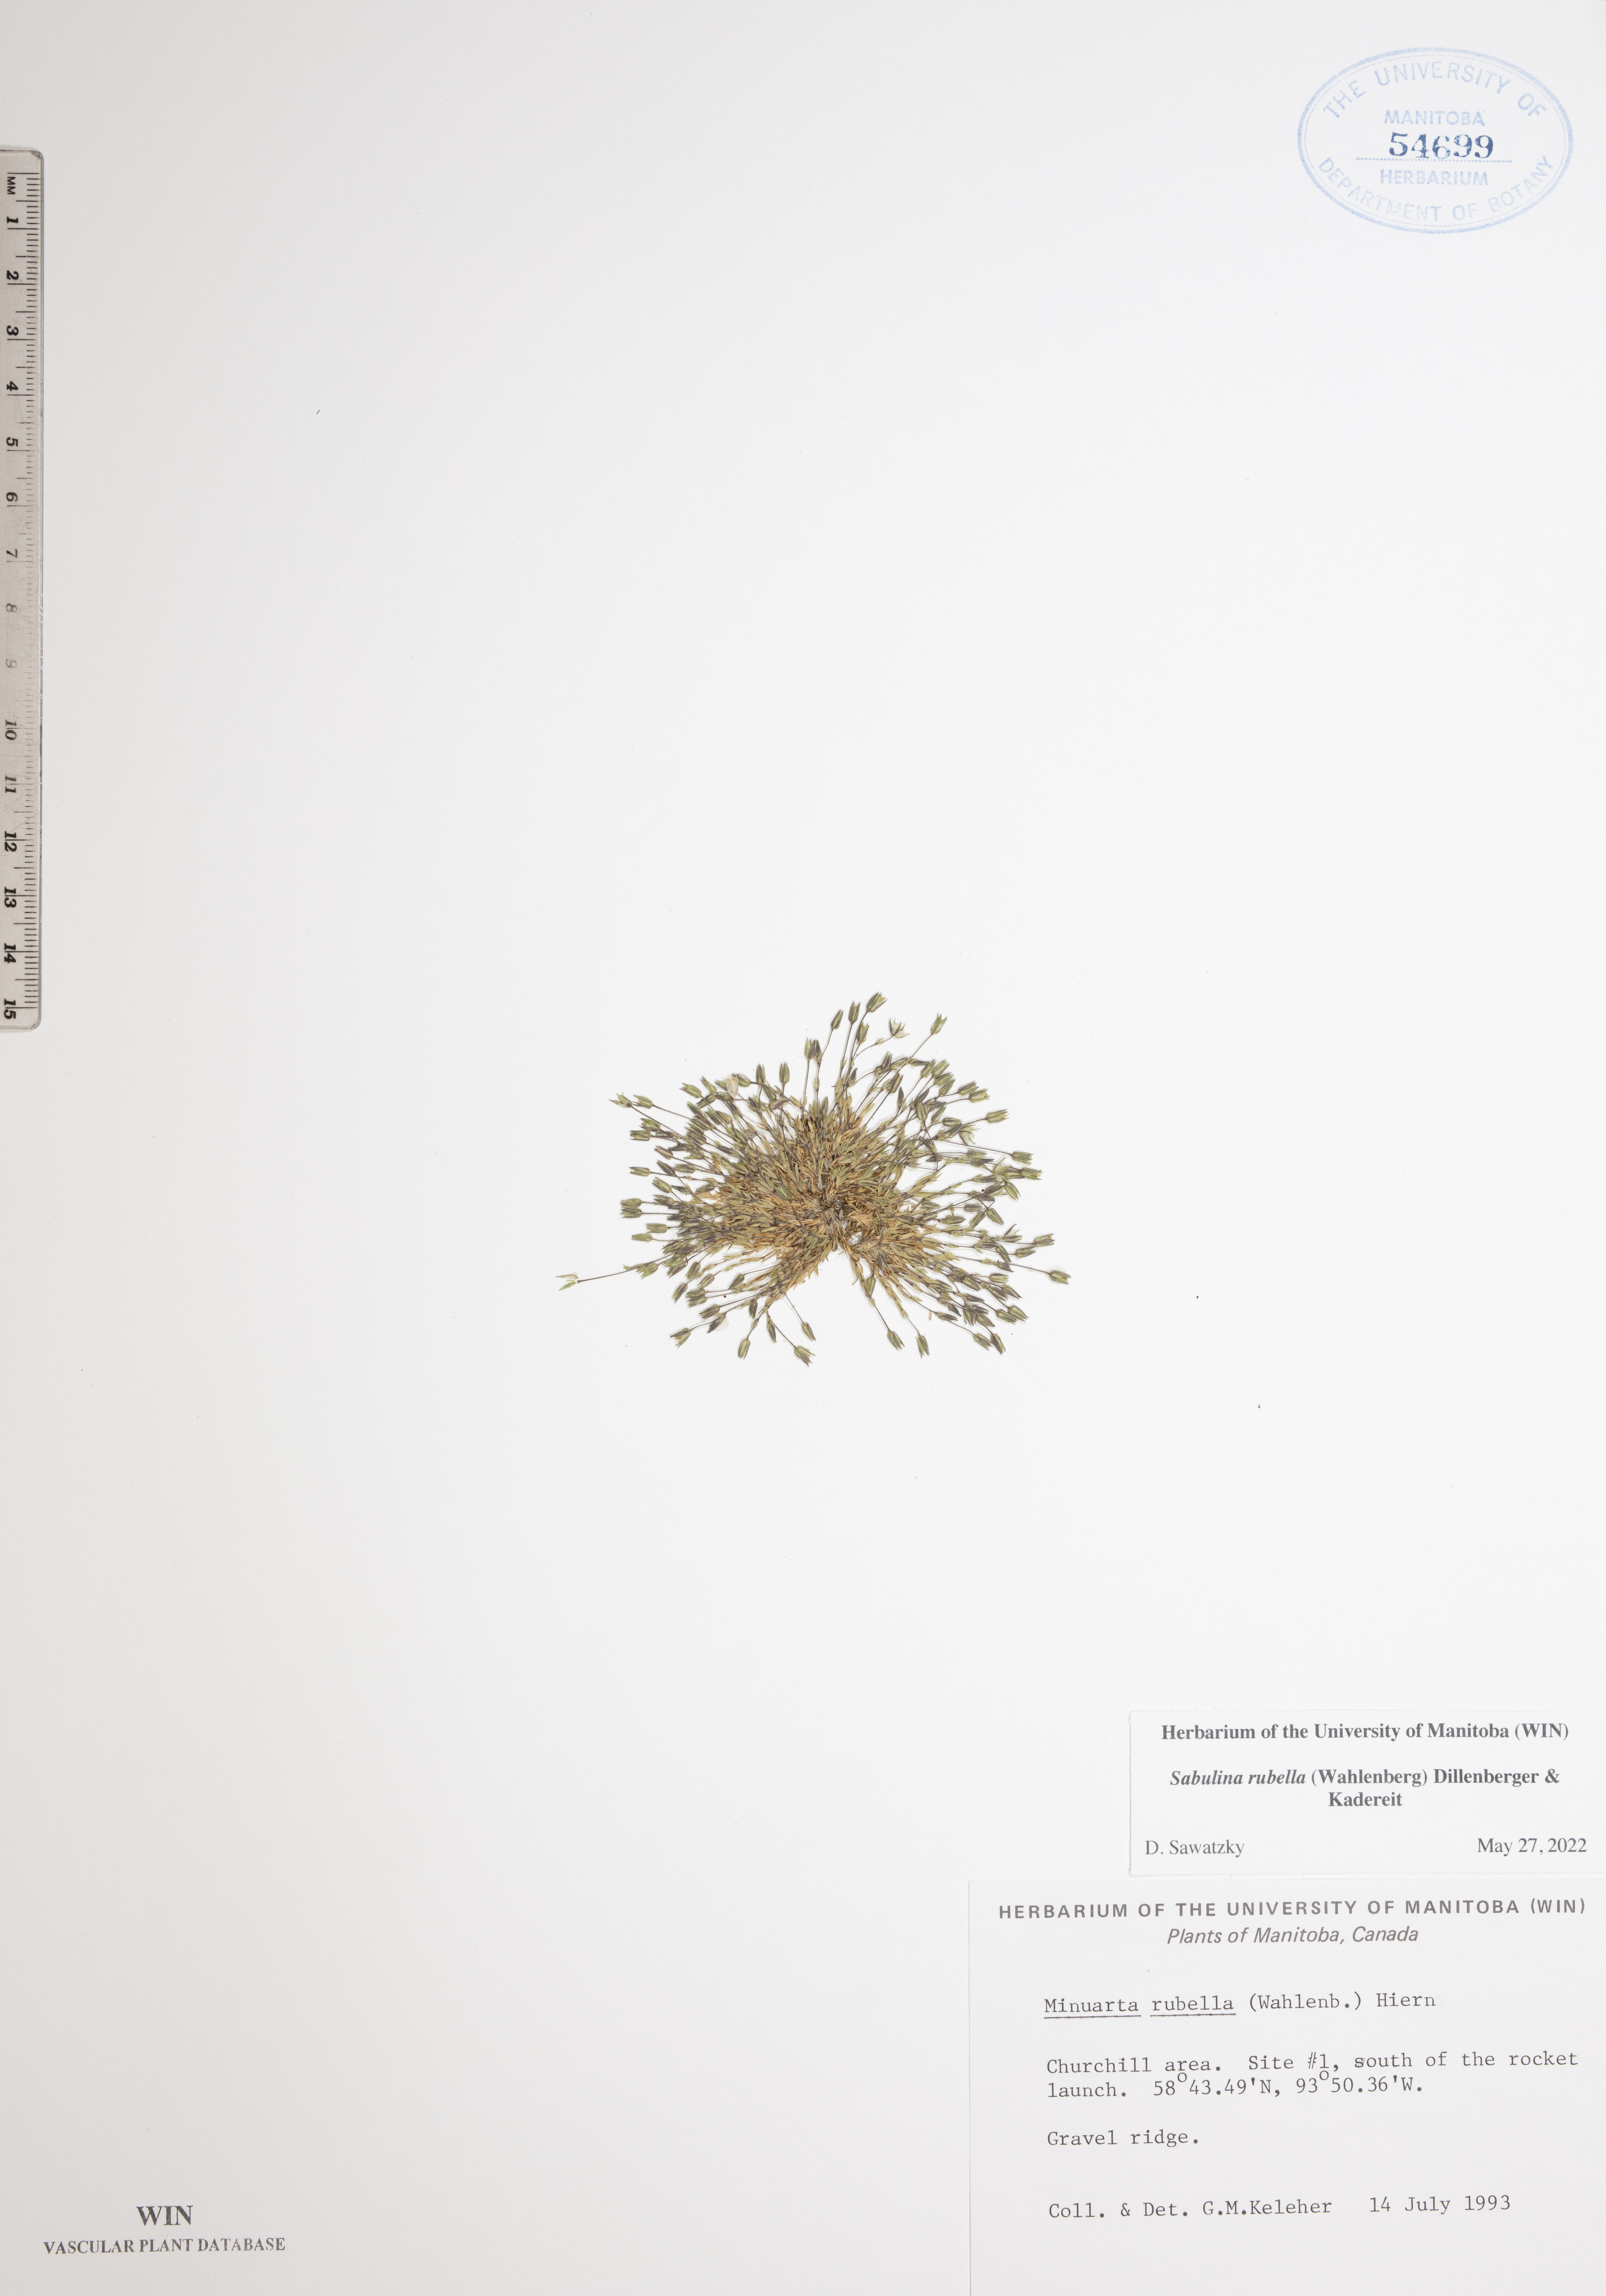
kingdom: Plantae
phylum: Tracheophyta
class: Magnoliopsida
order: Caryophyllales
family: Caryophyllaceae
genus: Sabulina
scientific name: Sabulina rubella
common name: Beautiful sandwort
